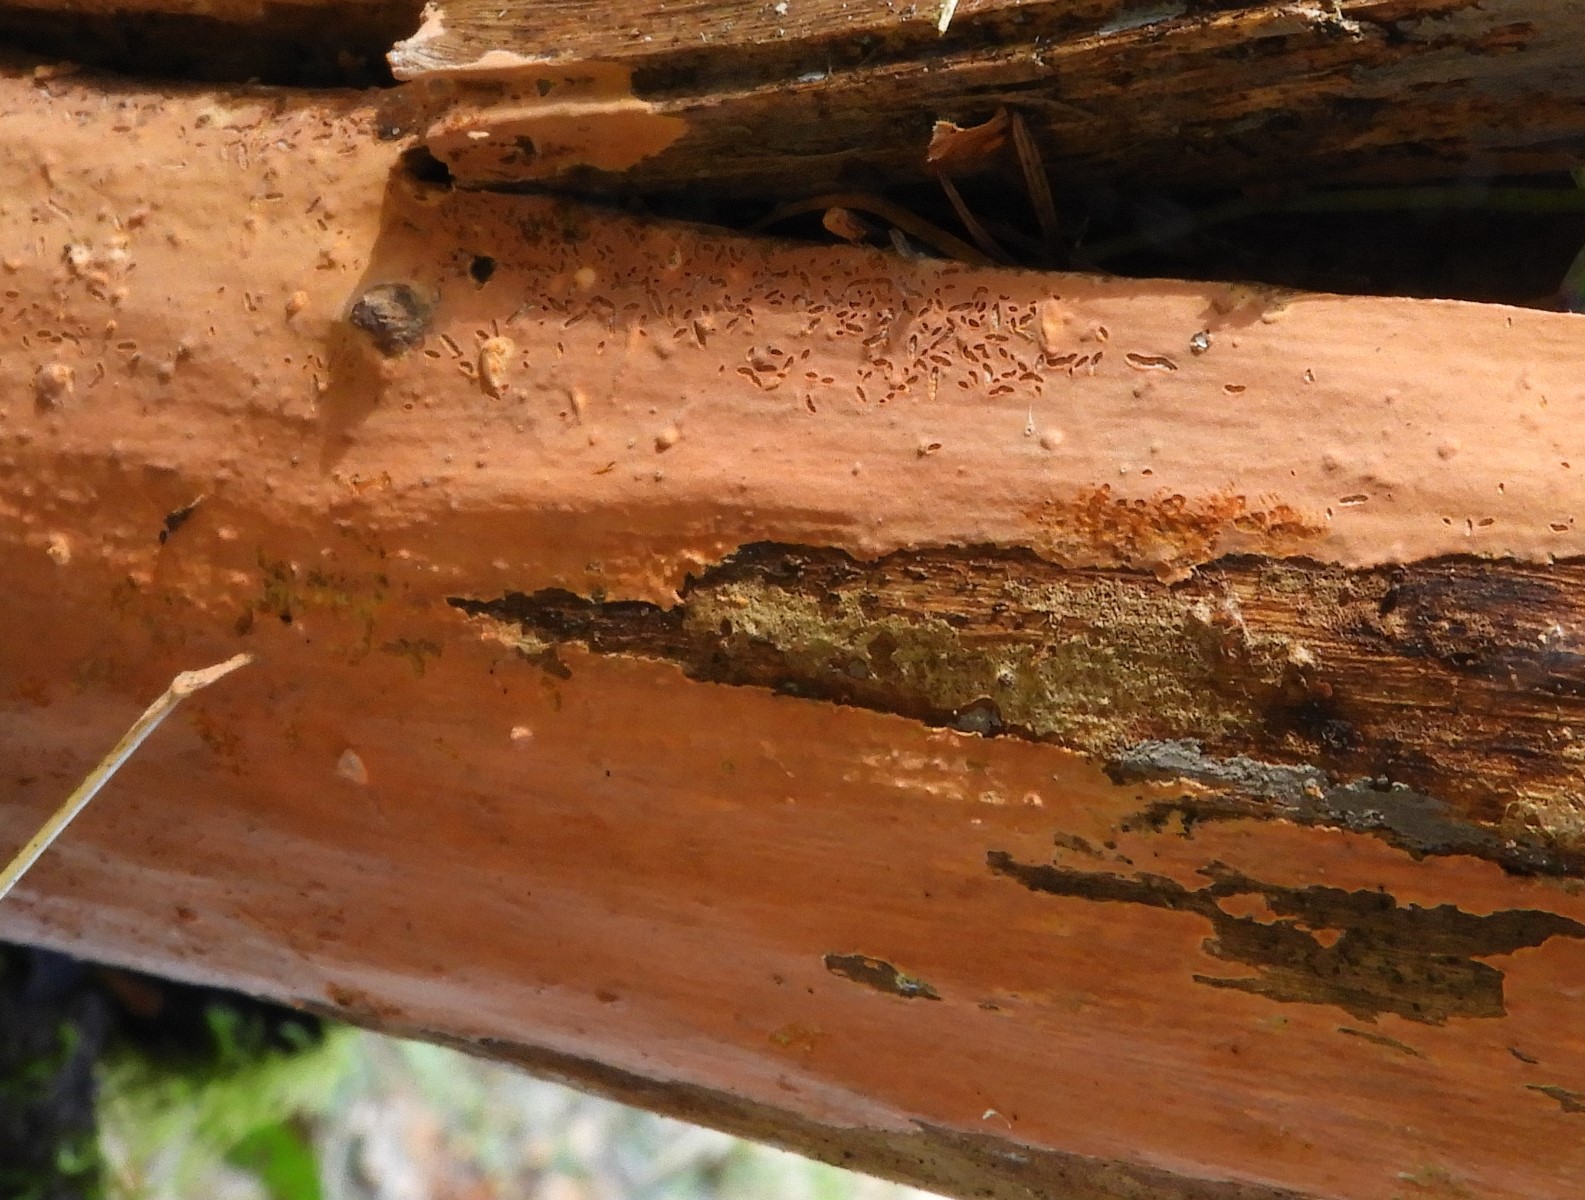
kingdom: Fungi
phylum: Basidiomycota
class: Agaricomycetes
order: Russulales
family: Peniophoraceae
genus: Peniophora
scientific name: Peniophora incarnata
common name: laksefarvet voksskind
